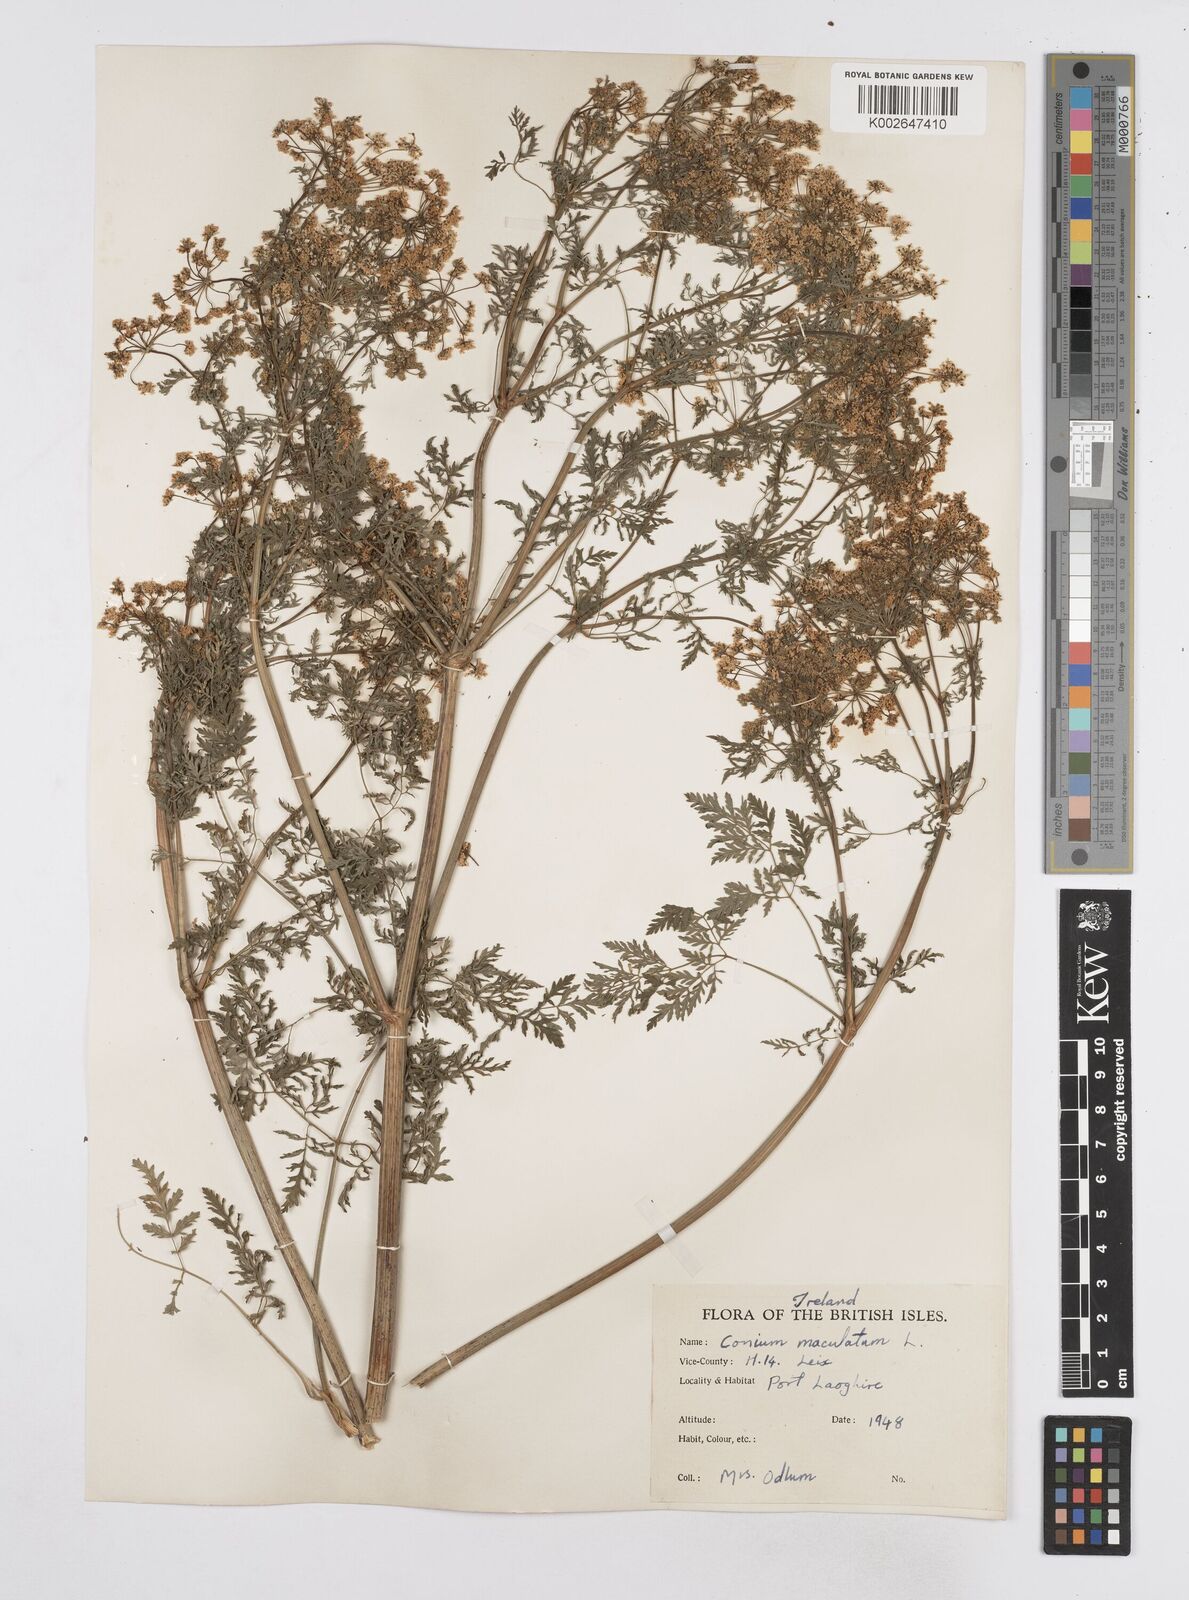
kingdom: Plantae
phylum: Tracheophyta
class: Magnoliopsida
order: Apiales
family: Apiaceae
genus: Conium
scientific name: Conium maculatum
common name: Hemlock
